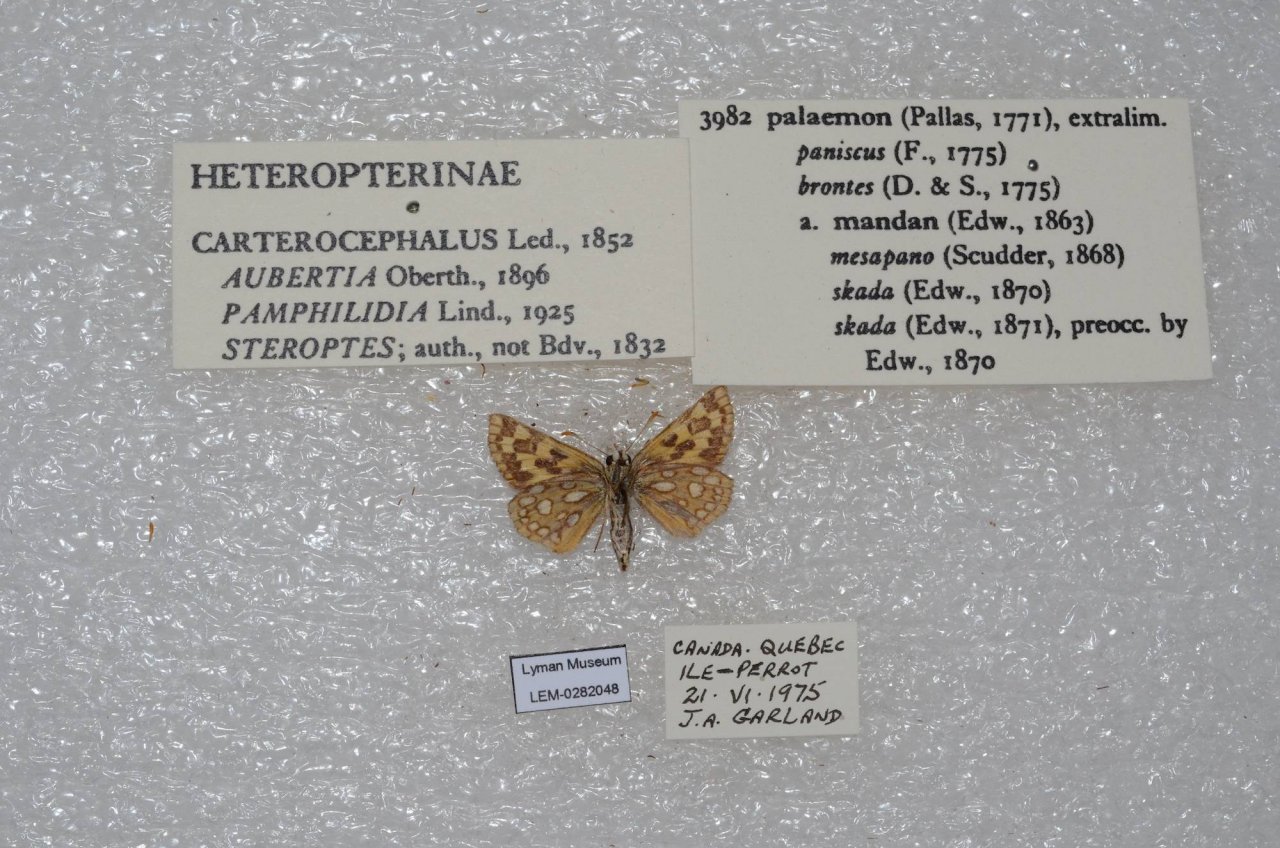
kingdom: Animalia
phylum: Arthropoda
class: Insecta
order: Lepidoptera
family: Hesperiidae
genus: Carterocephalus
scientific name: Carterocephalus palaemon
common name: Chequered Skipper
